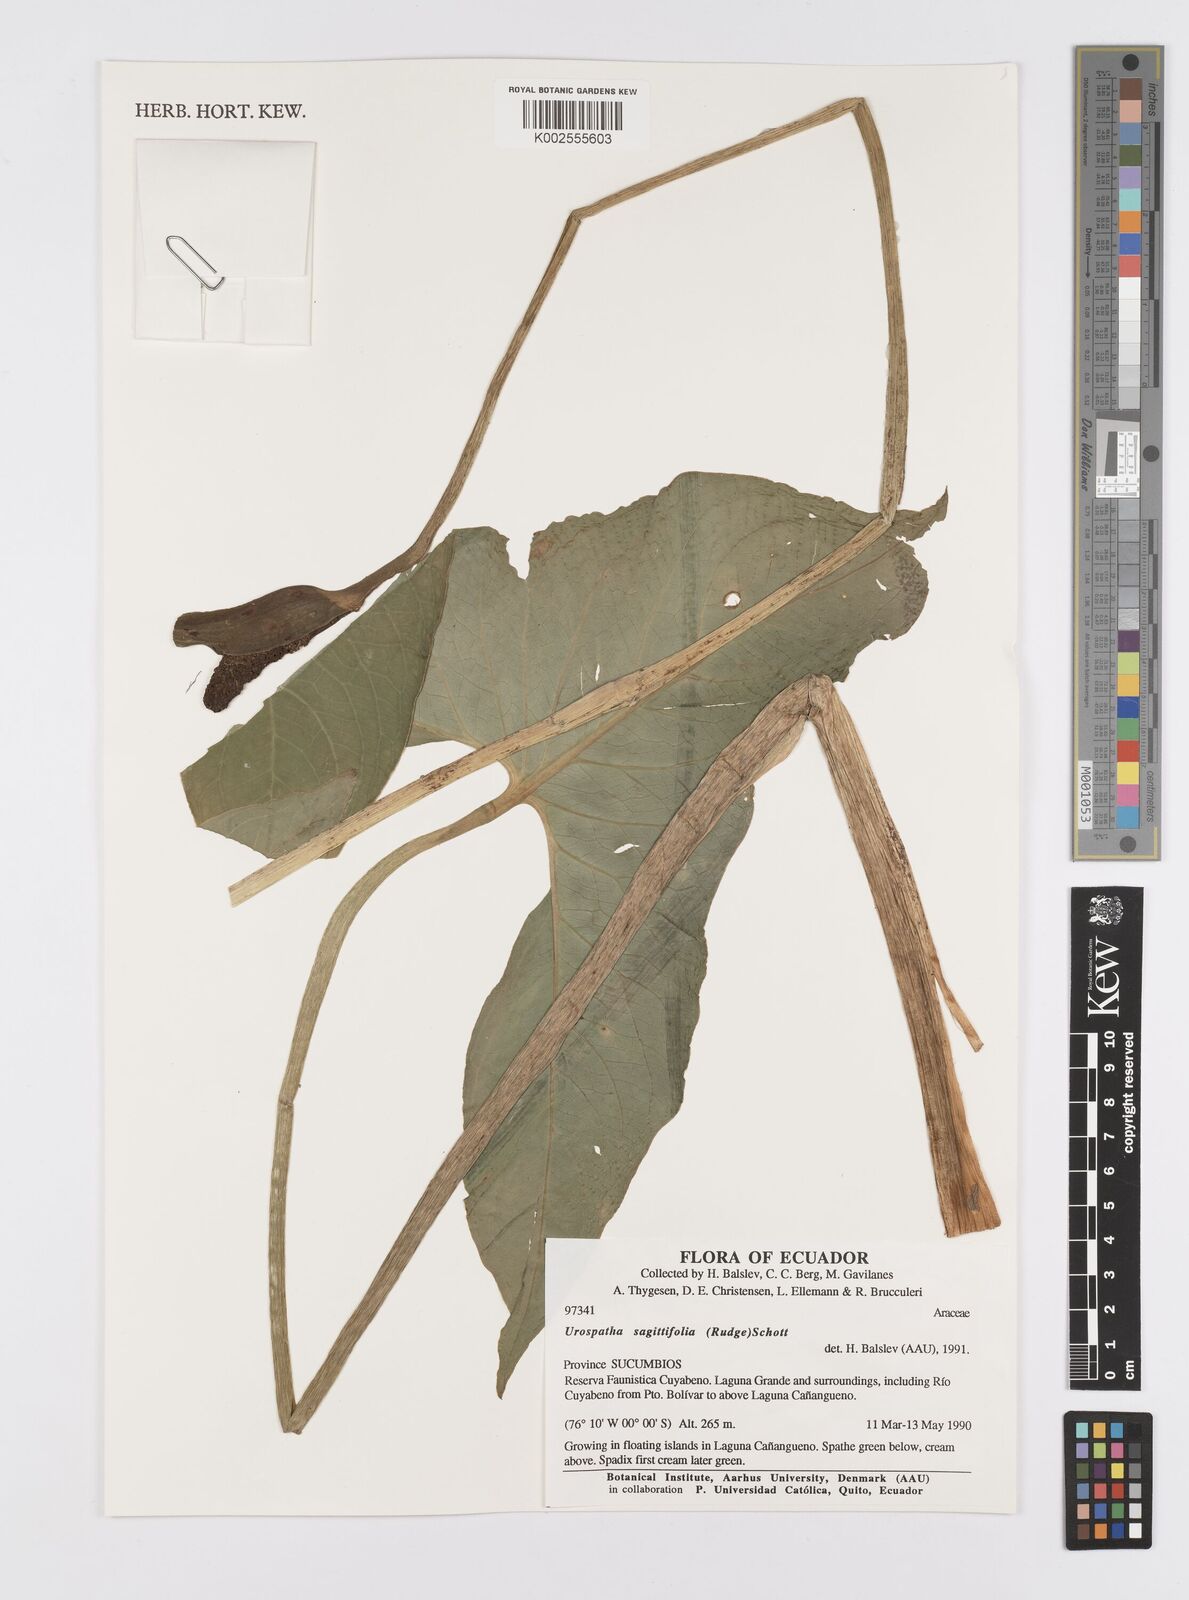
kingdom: Plantae
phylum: Tracheophyta
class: Liliopsida
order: Alismatales
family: Araceae
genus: Urospatha
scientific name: Urospatha sagittifolia
